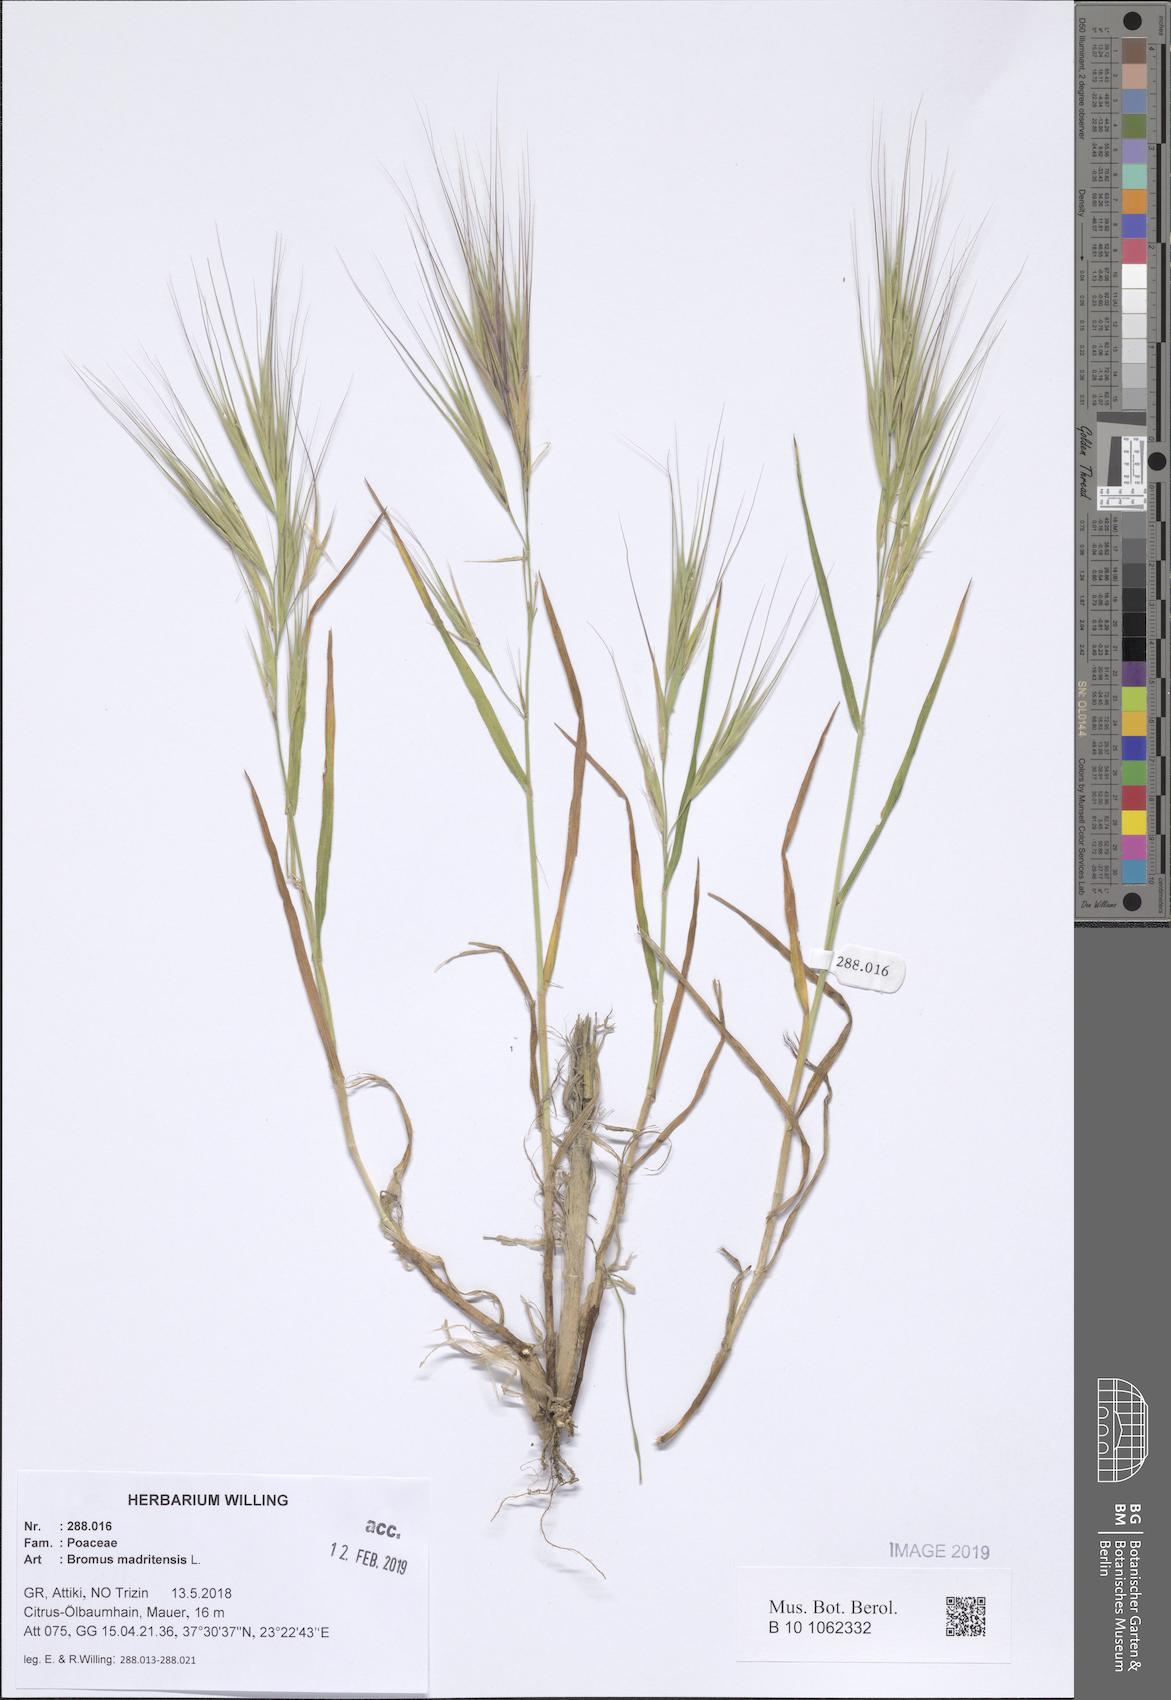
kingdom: Plantae
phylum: Tracheophyta
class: Liliopsida
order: Poales
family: Poaceae
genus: Bromus
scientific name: Bromus madritensis
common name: Compact brome
